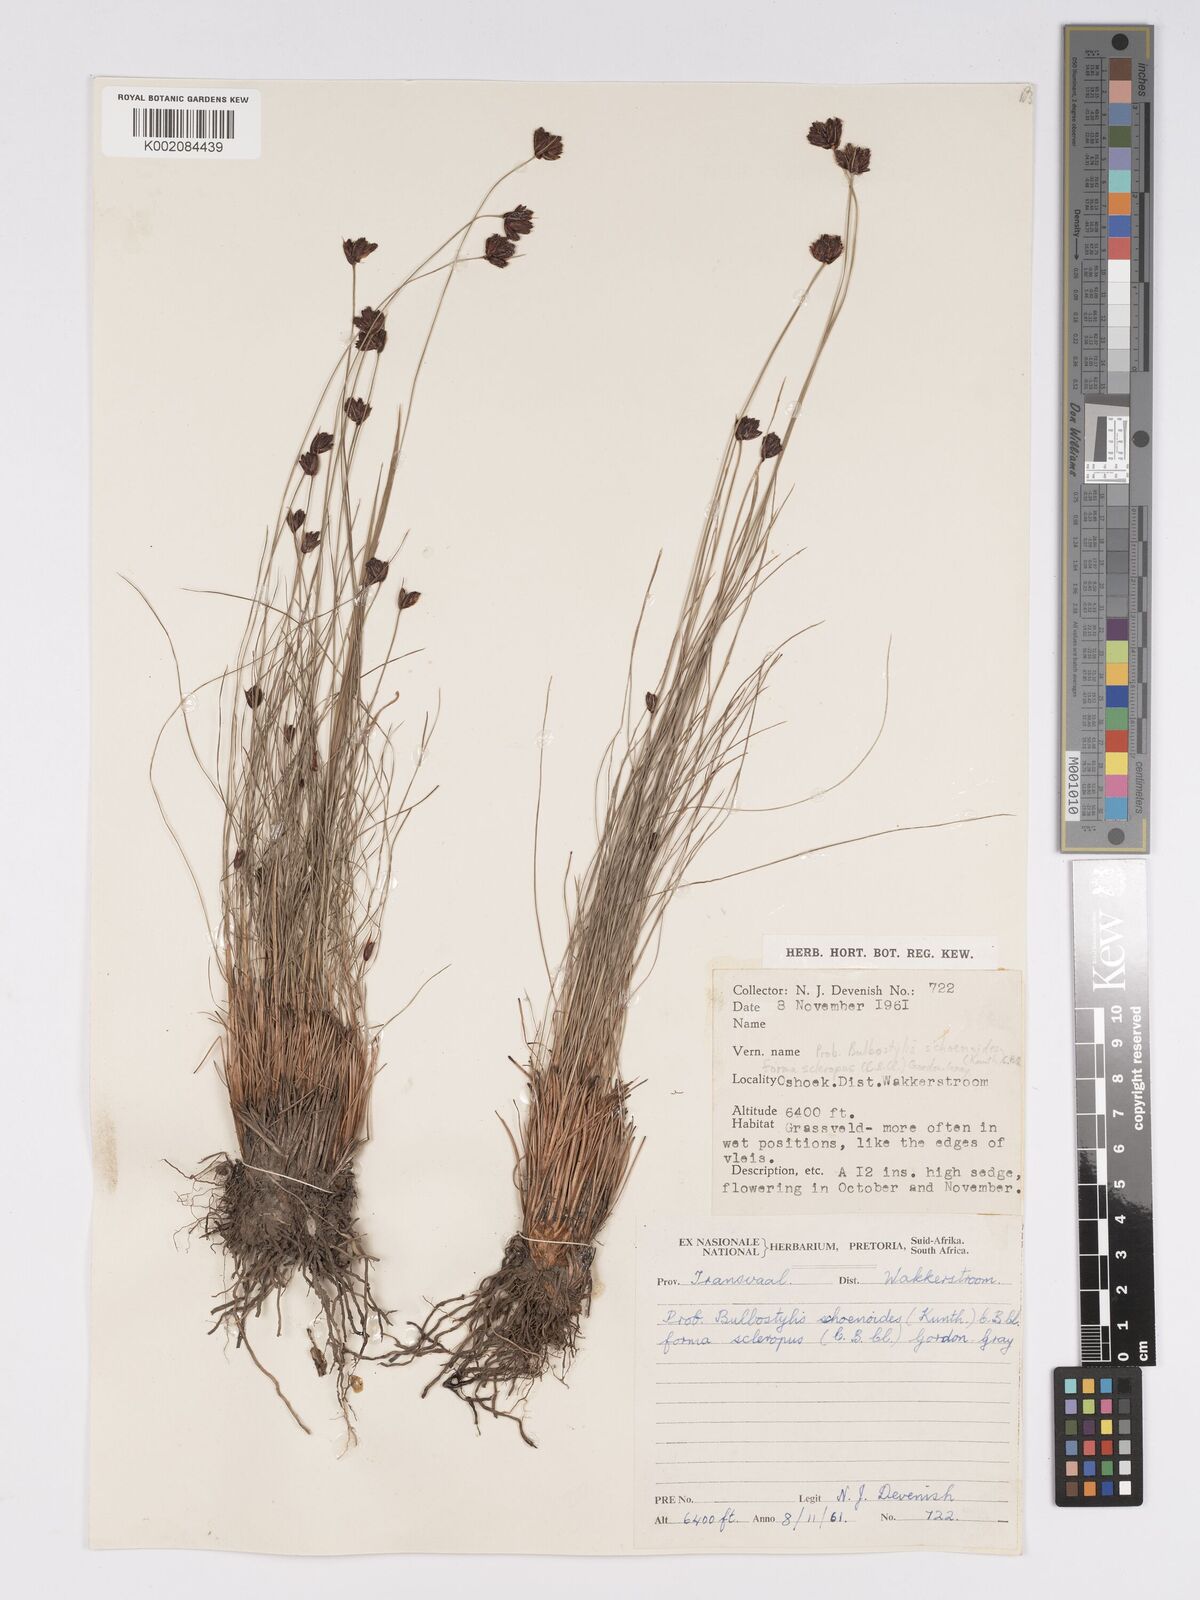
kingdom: Plantae
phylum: Tracheophyta
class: Liliopsida
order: Poales
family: Cyperaceae
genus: Bulbostylis
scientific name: Bulbostylis schoenoides
